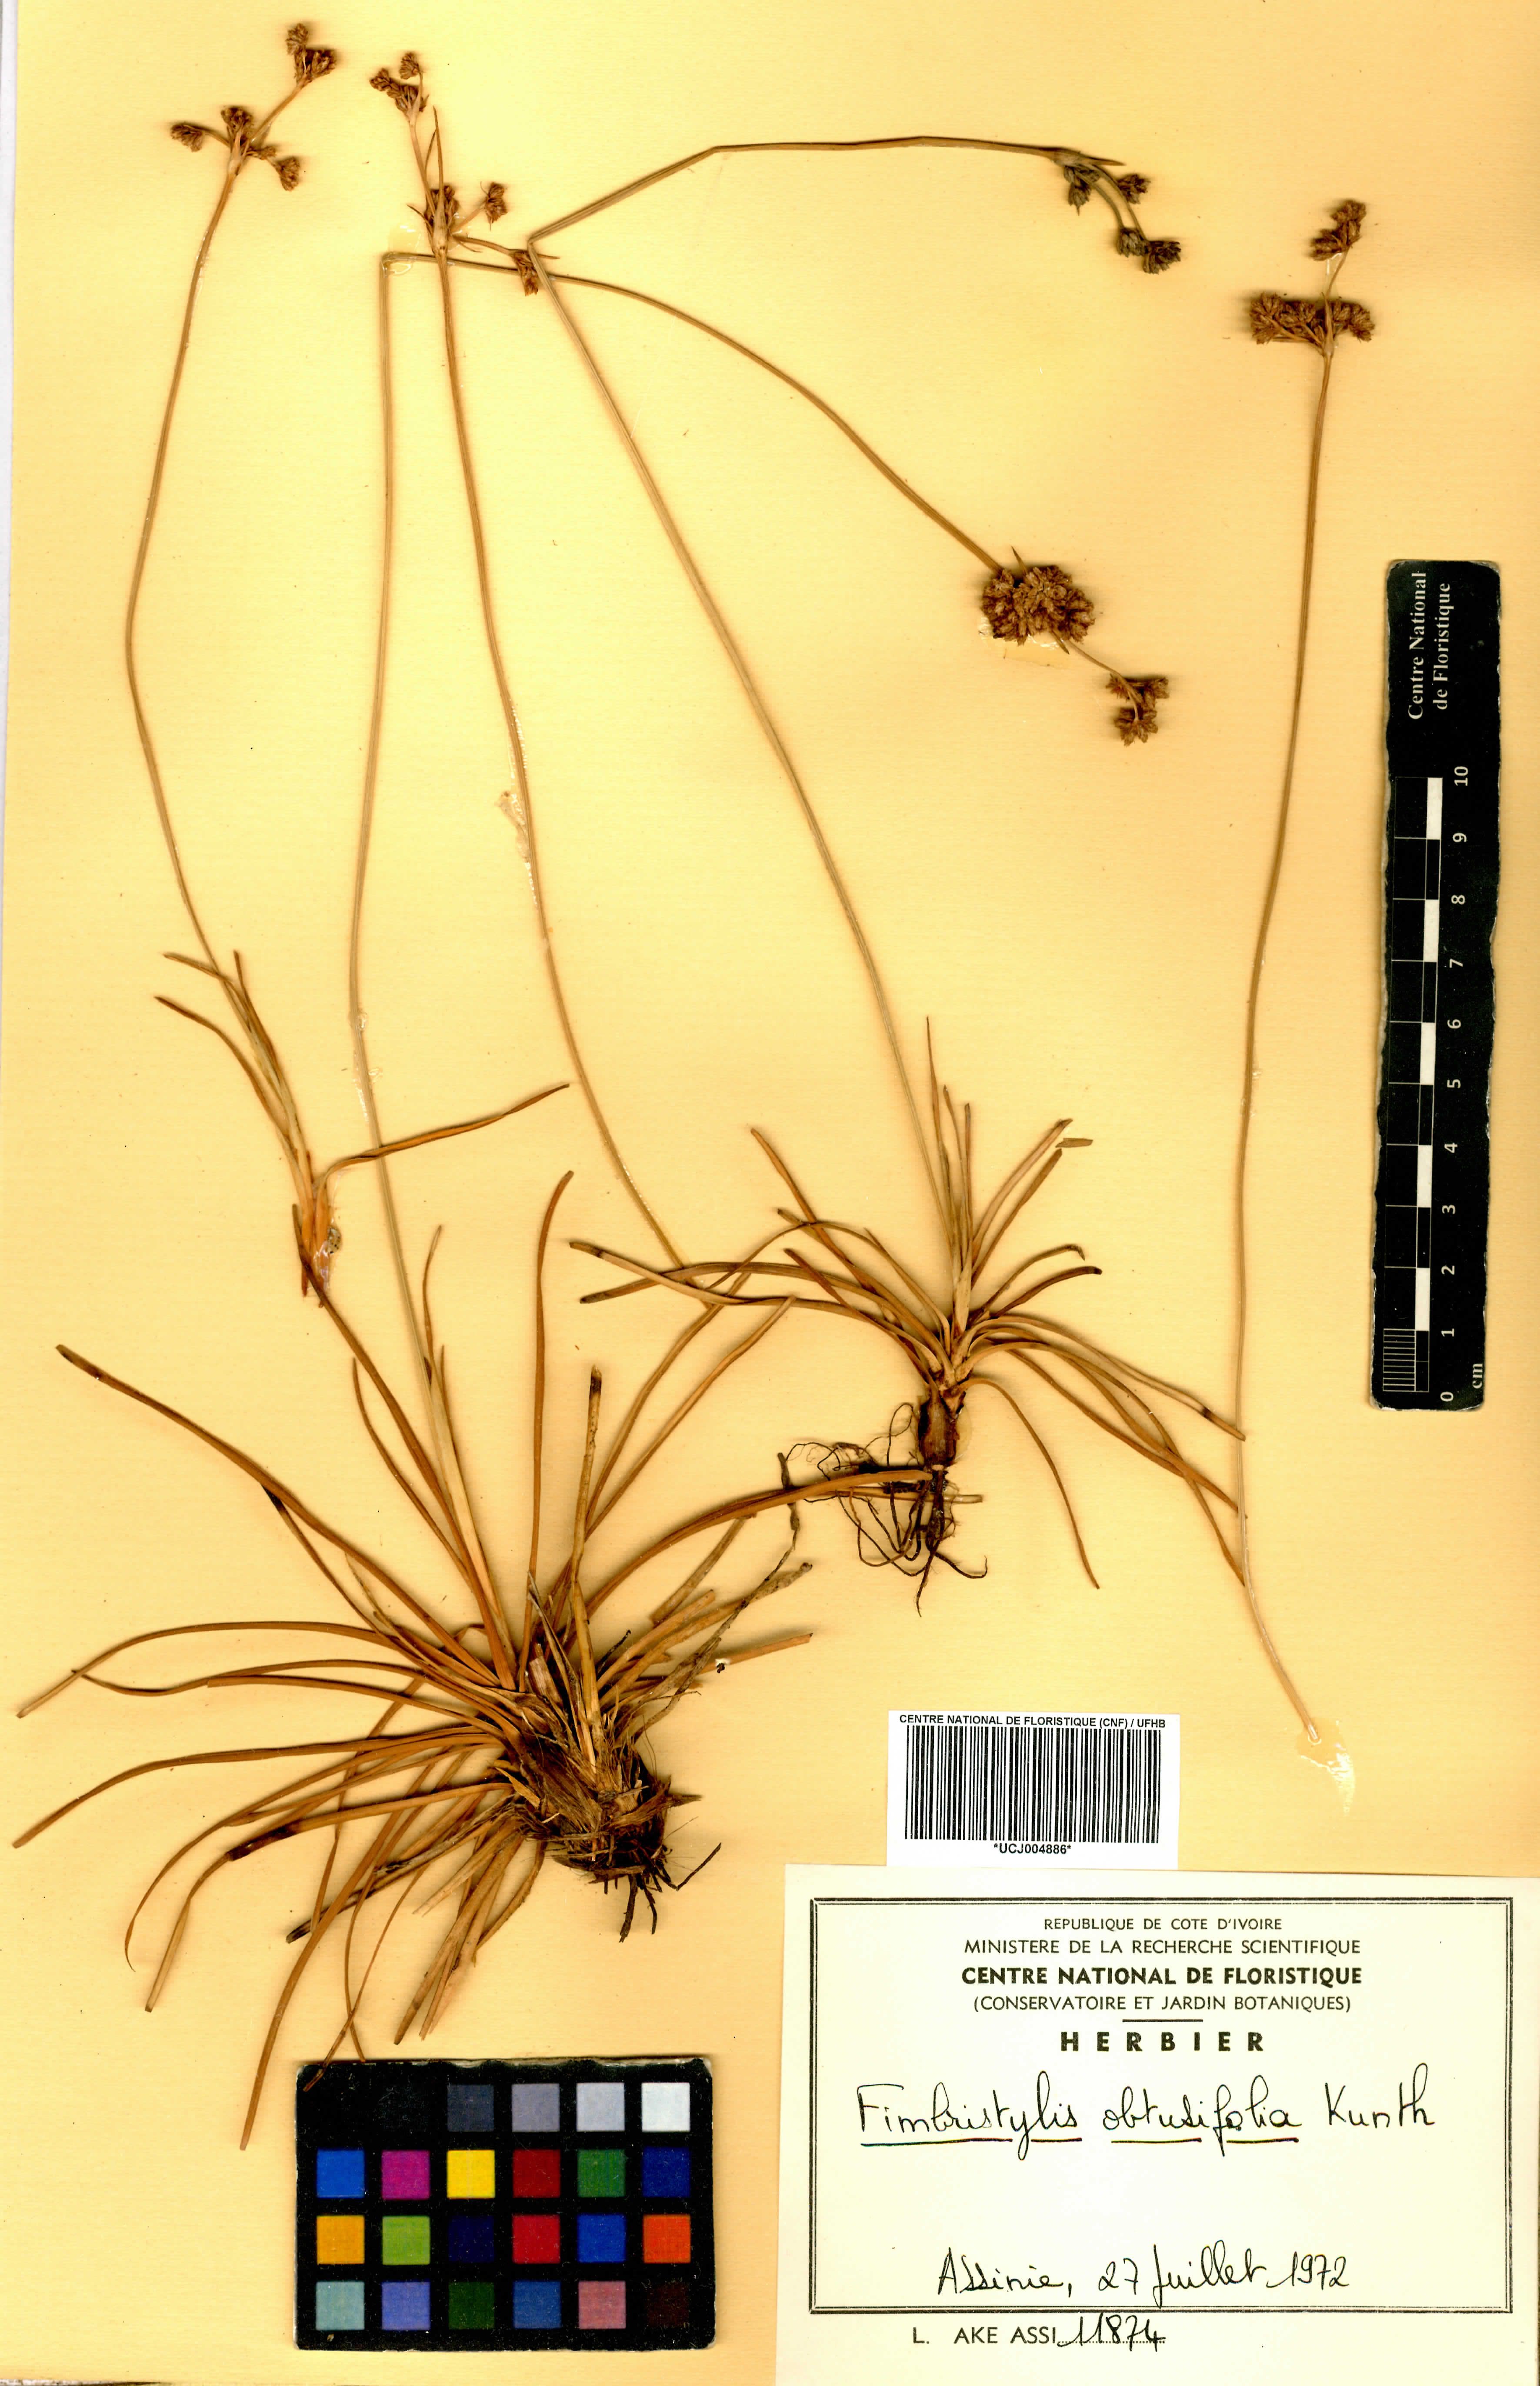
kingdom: Plantae
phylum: Tracheophyta
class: Liliopsida
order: Poales
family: Cyperaceae
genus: Fimbristylis
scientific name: Fimbristylis cymosa
